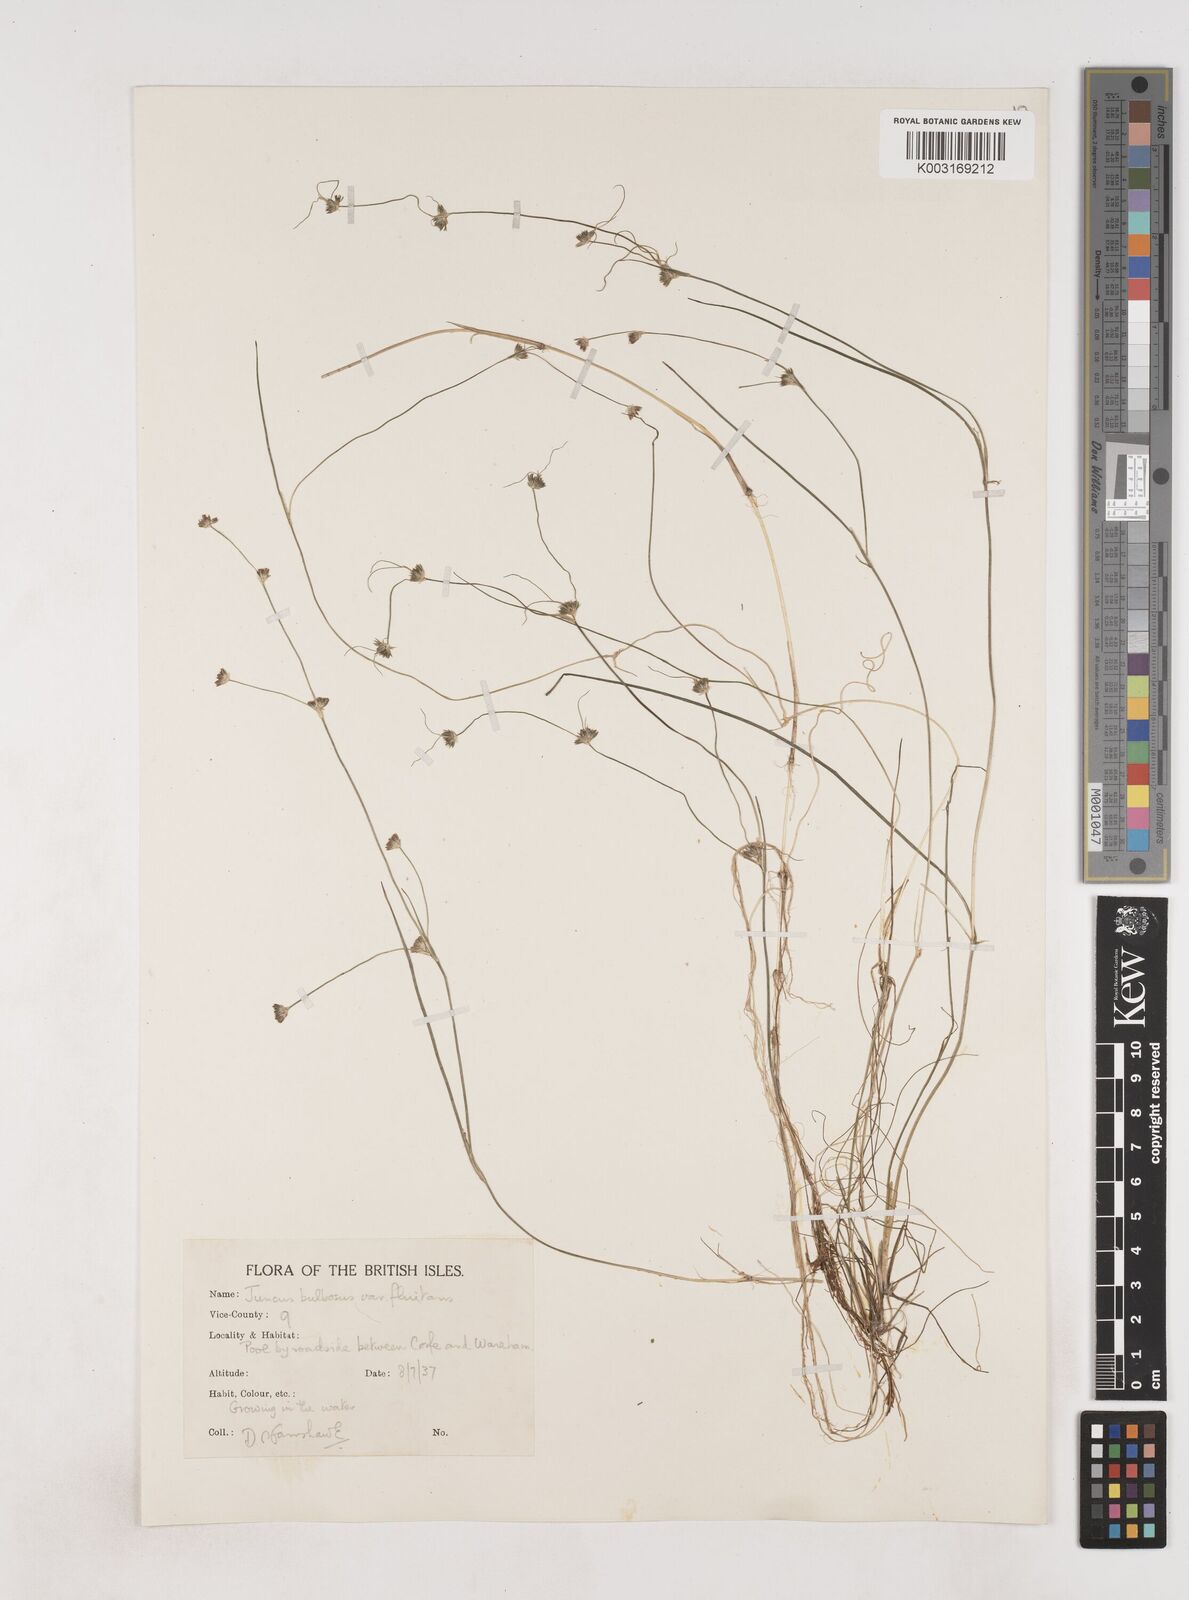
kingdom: Plantae
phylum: Tracheophyta
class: Liliopsida
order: Poales
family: Juncaceae
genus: Juncus
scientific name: Juncus bulbosus
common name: Bulbous rush
